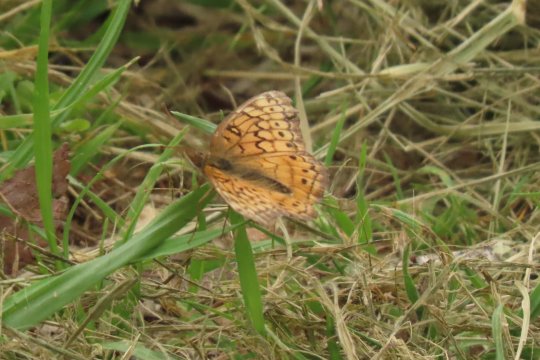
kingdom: Animalia
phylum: Arthropoda
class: Insecta
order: Lepidoptera
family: Nymphalidae
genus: Euptoieta
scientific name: Euptoieta claudia
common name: Variegated Fritillary
